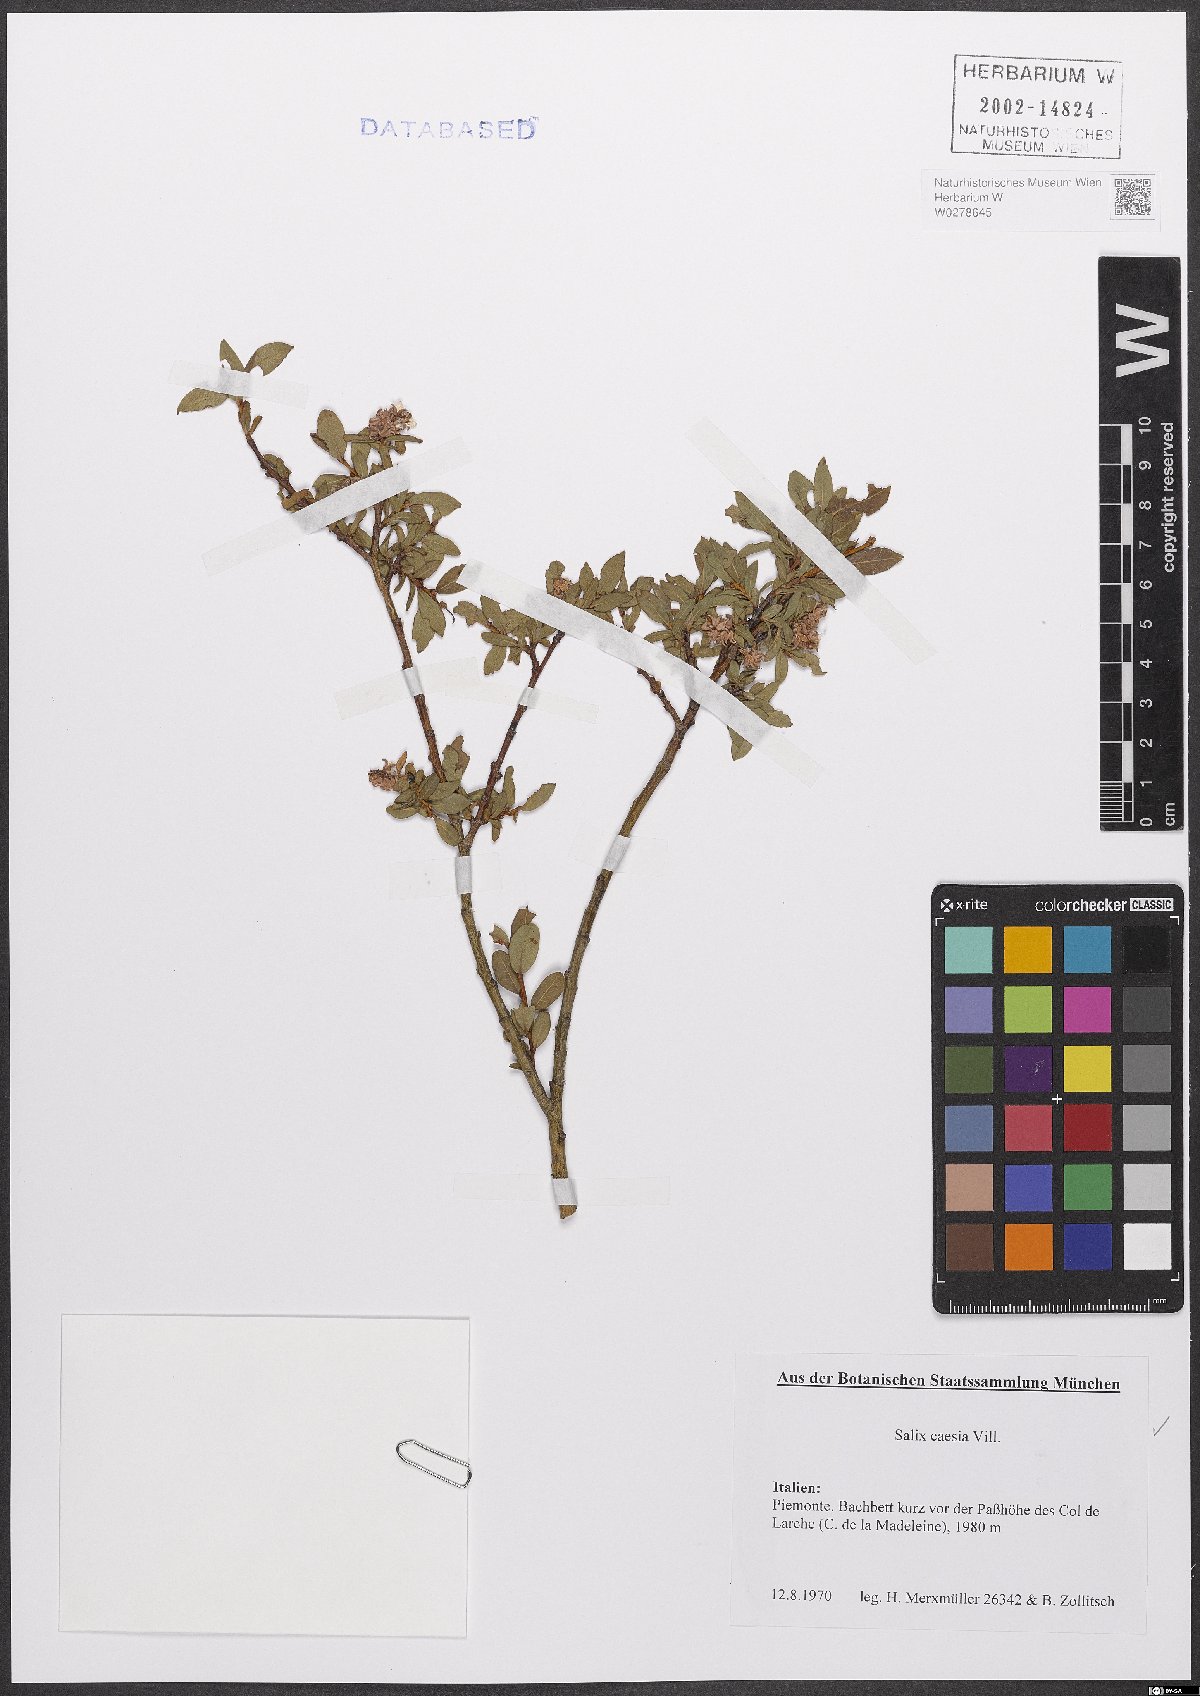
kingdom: Plantae
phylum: Tracheophyta
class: Magnoliopsida
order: Malpighiales
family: Salicaceae
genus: Salix
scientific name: Salix caesia
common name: Blue willow
